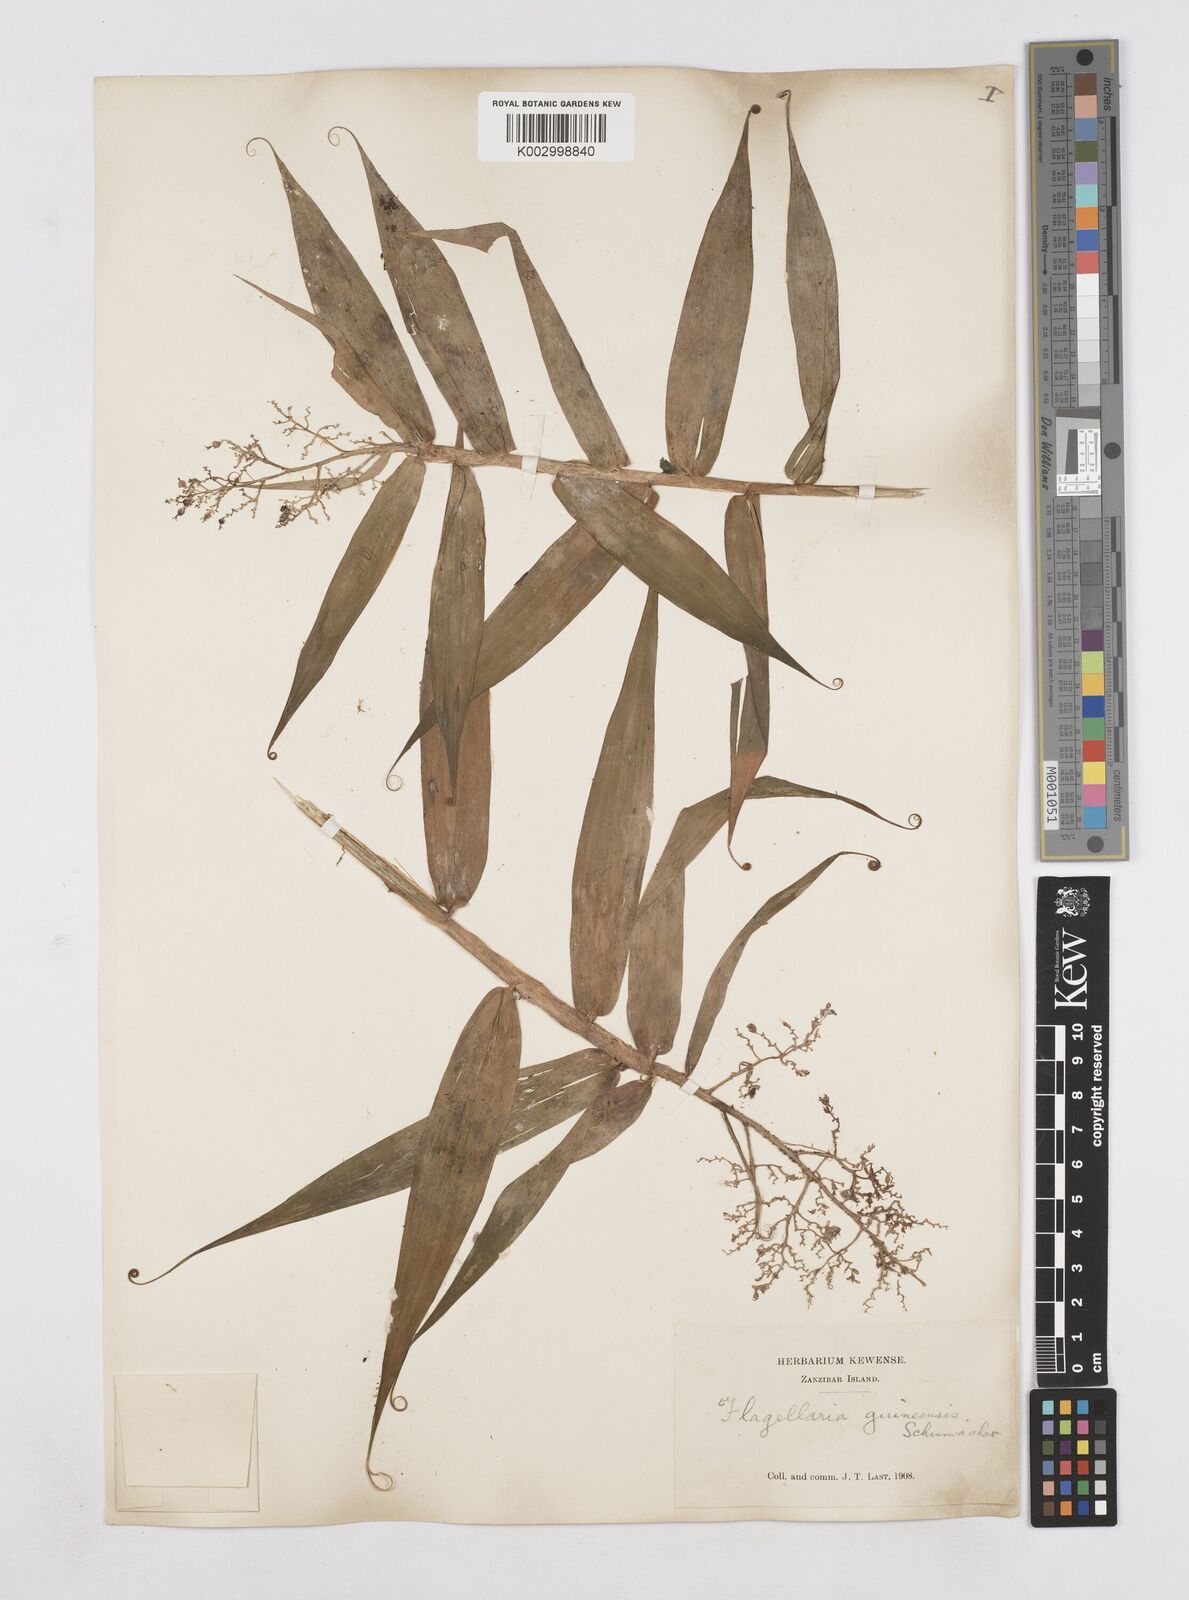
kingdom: Plantae
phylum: Tracheophyta
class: Liliopsida
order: Poales
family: Flagellariaceae
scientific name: Flagellariaceae
